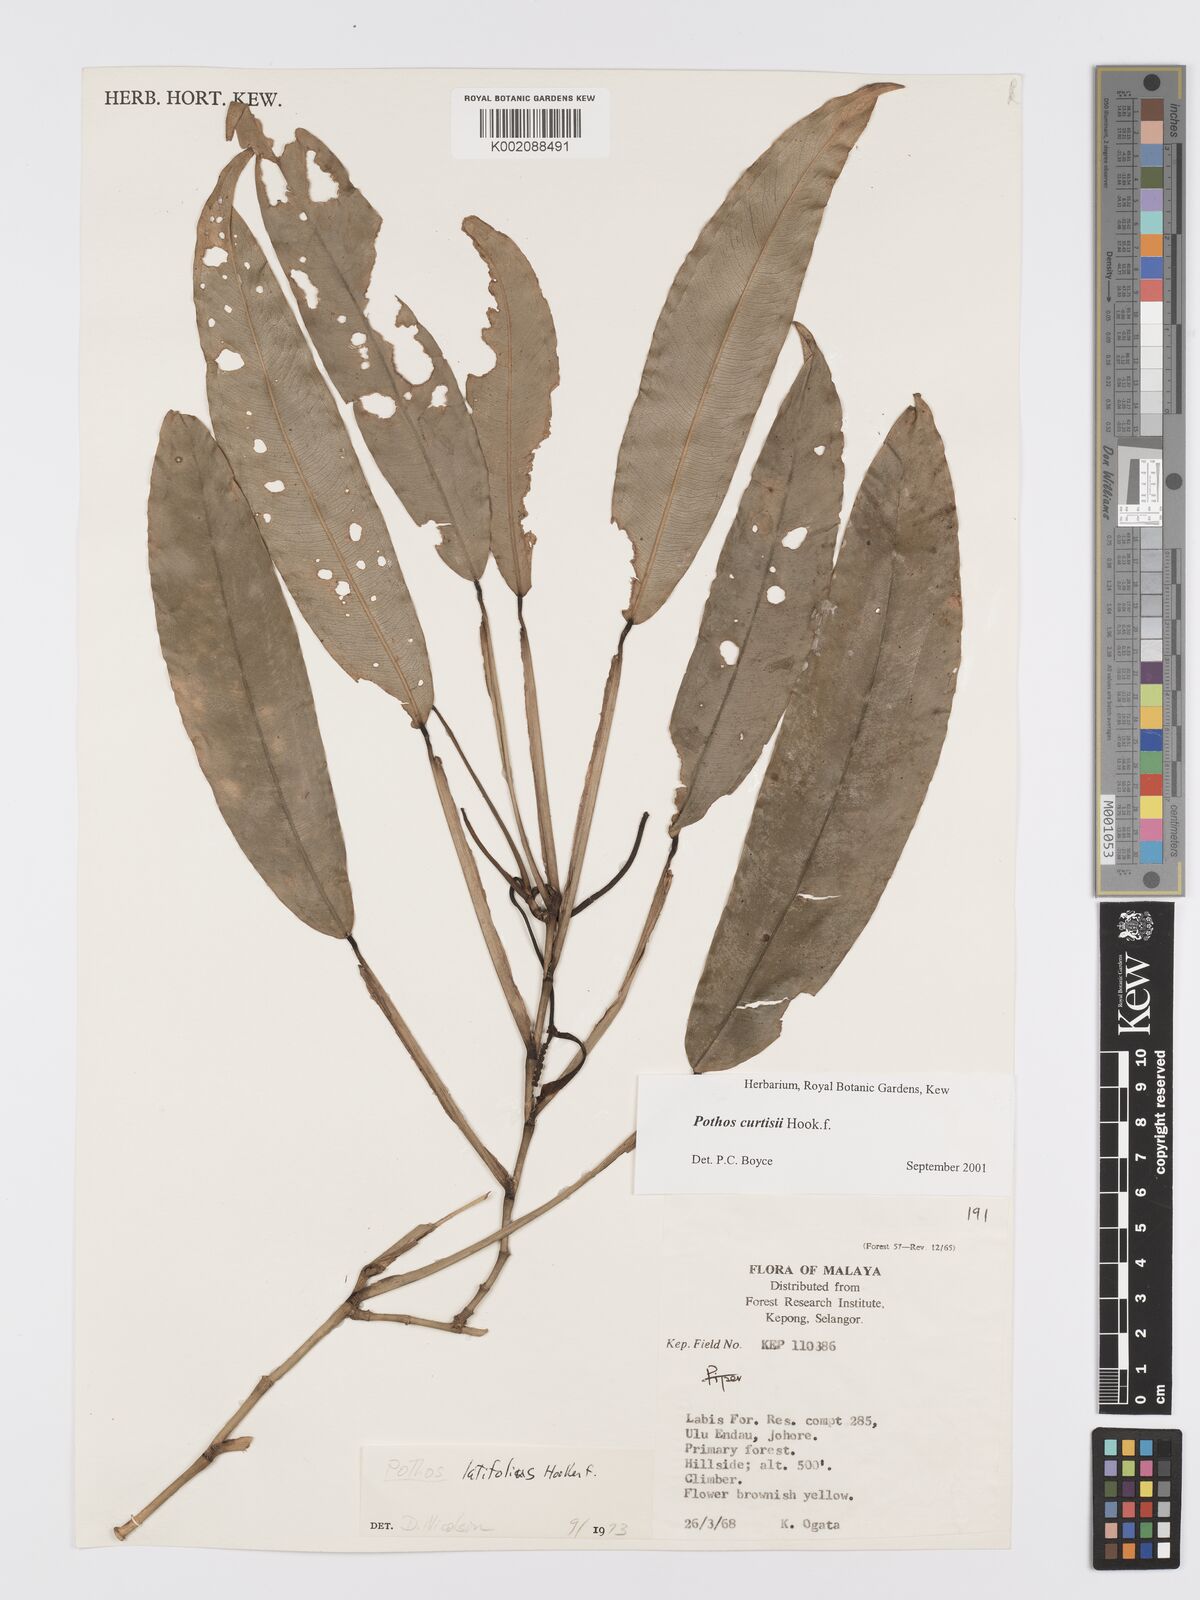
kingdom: Plantae
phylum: Tracheophyta
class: Liliopsida
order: Alismatales
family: Araceae
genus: Pothos
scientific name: Pothos curtisii
